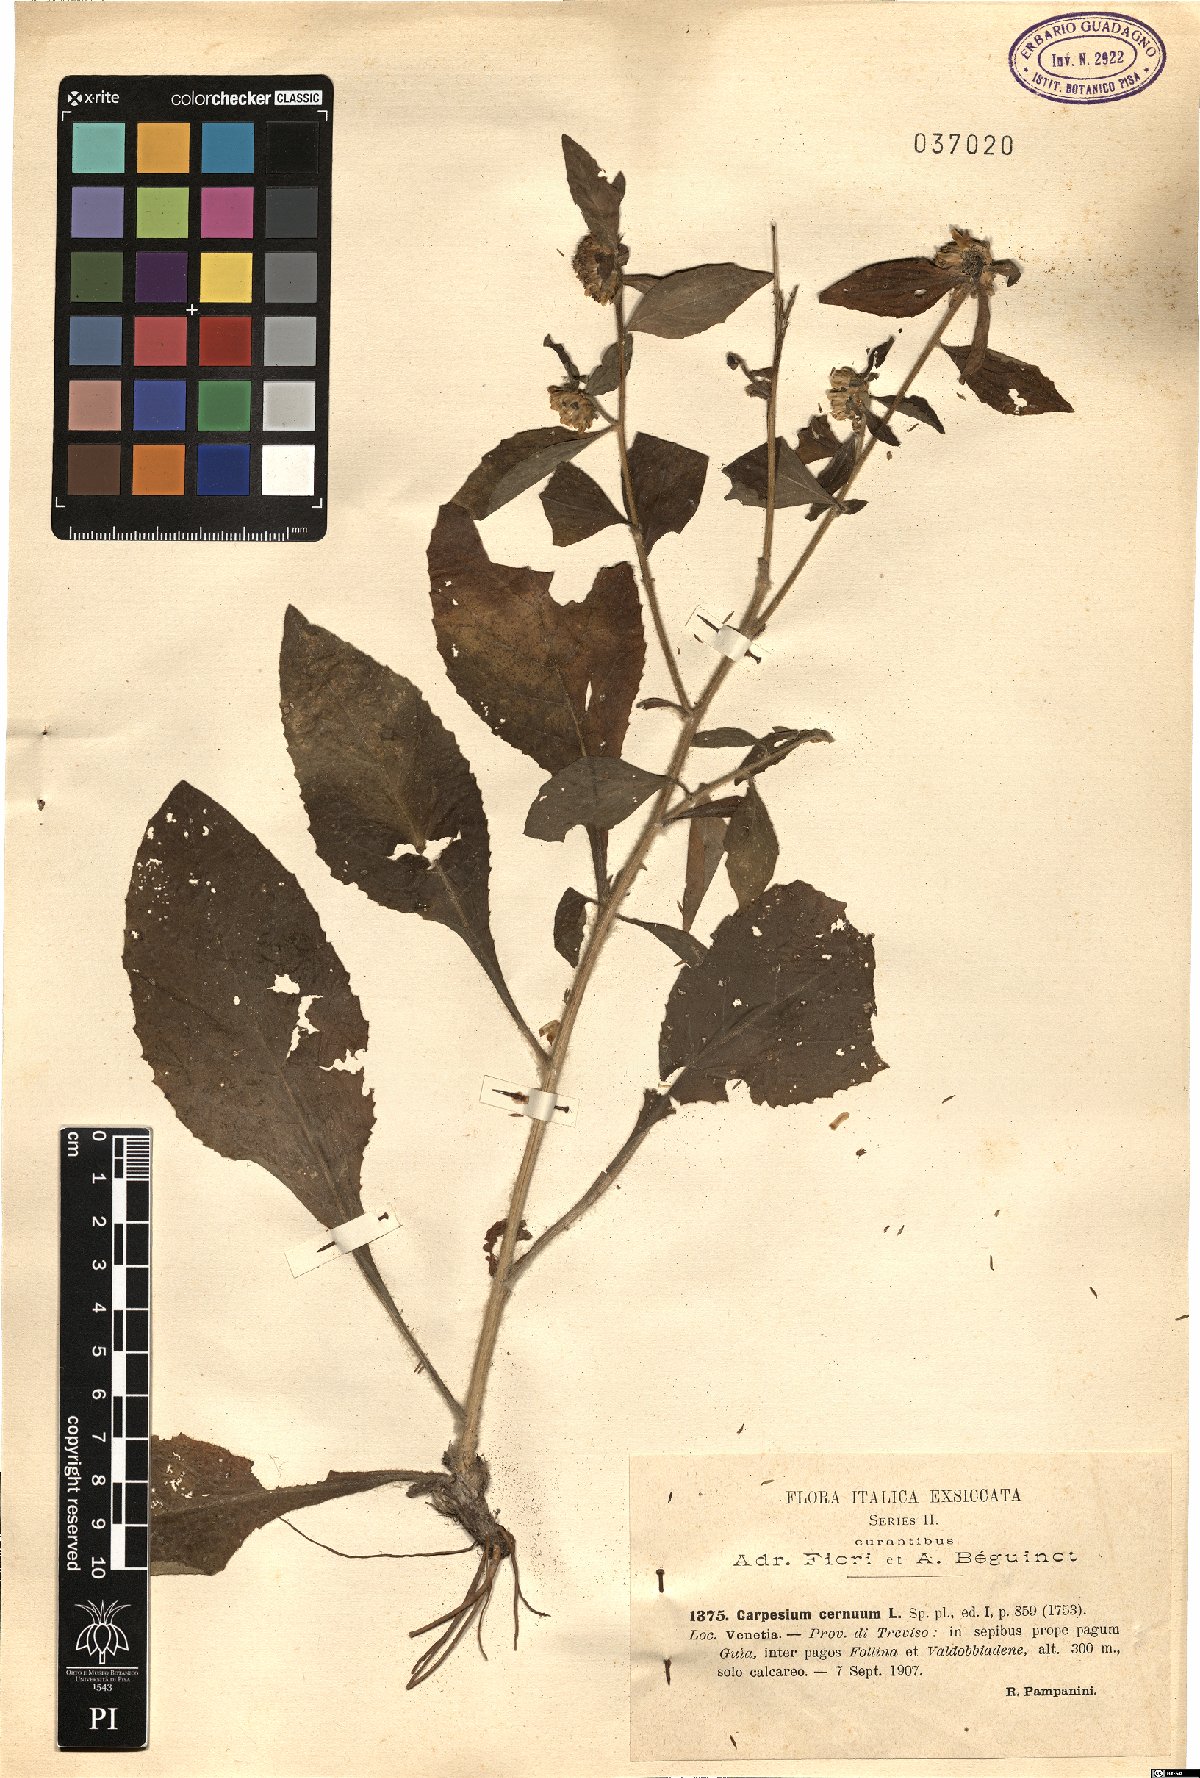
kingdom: Plantae
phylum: Tracheophyta
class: Magnoliopsida
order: Asterales
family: Asteraceae
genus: Carpesium
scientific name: Carpesium cernuum
